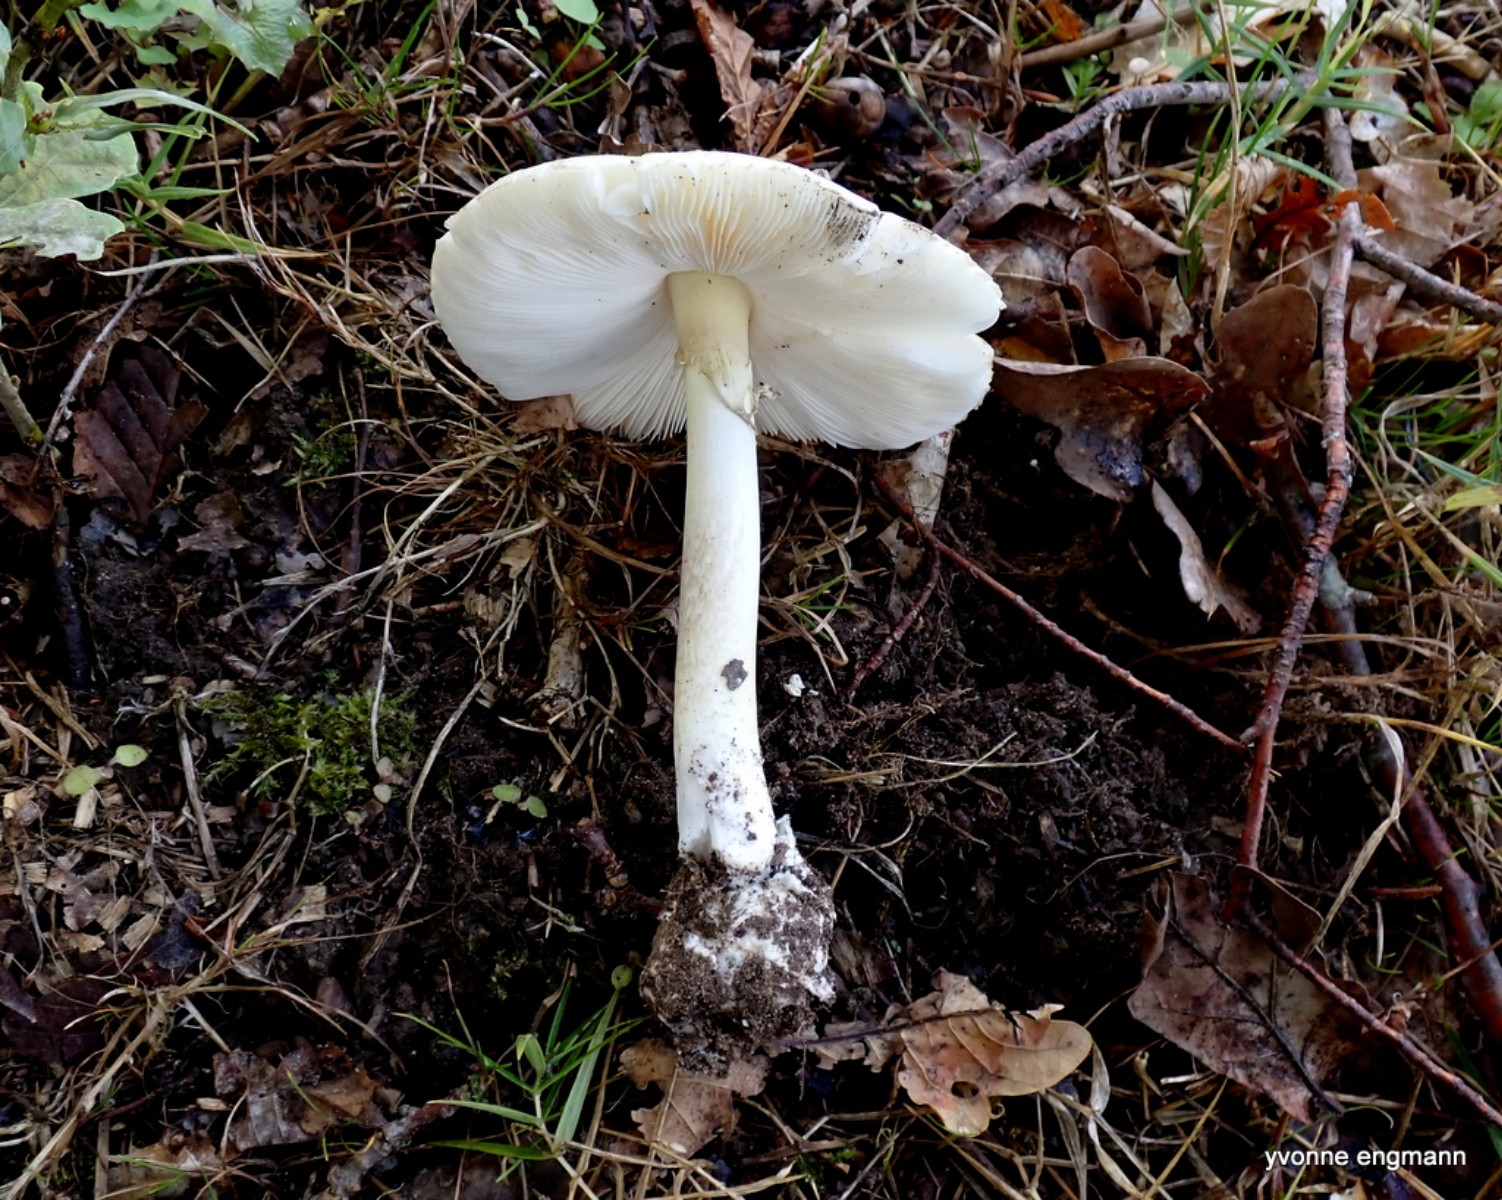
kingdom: Fungi
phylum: Basidiomycota
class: Agaricomycetes
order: Agaricales
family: Amanitaceae
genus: Amanita
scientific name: Amanita phalloides
